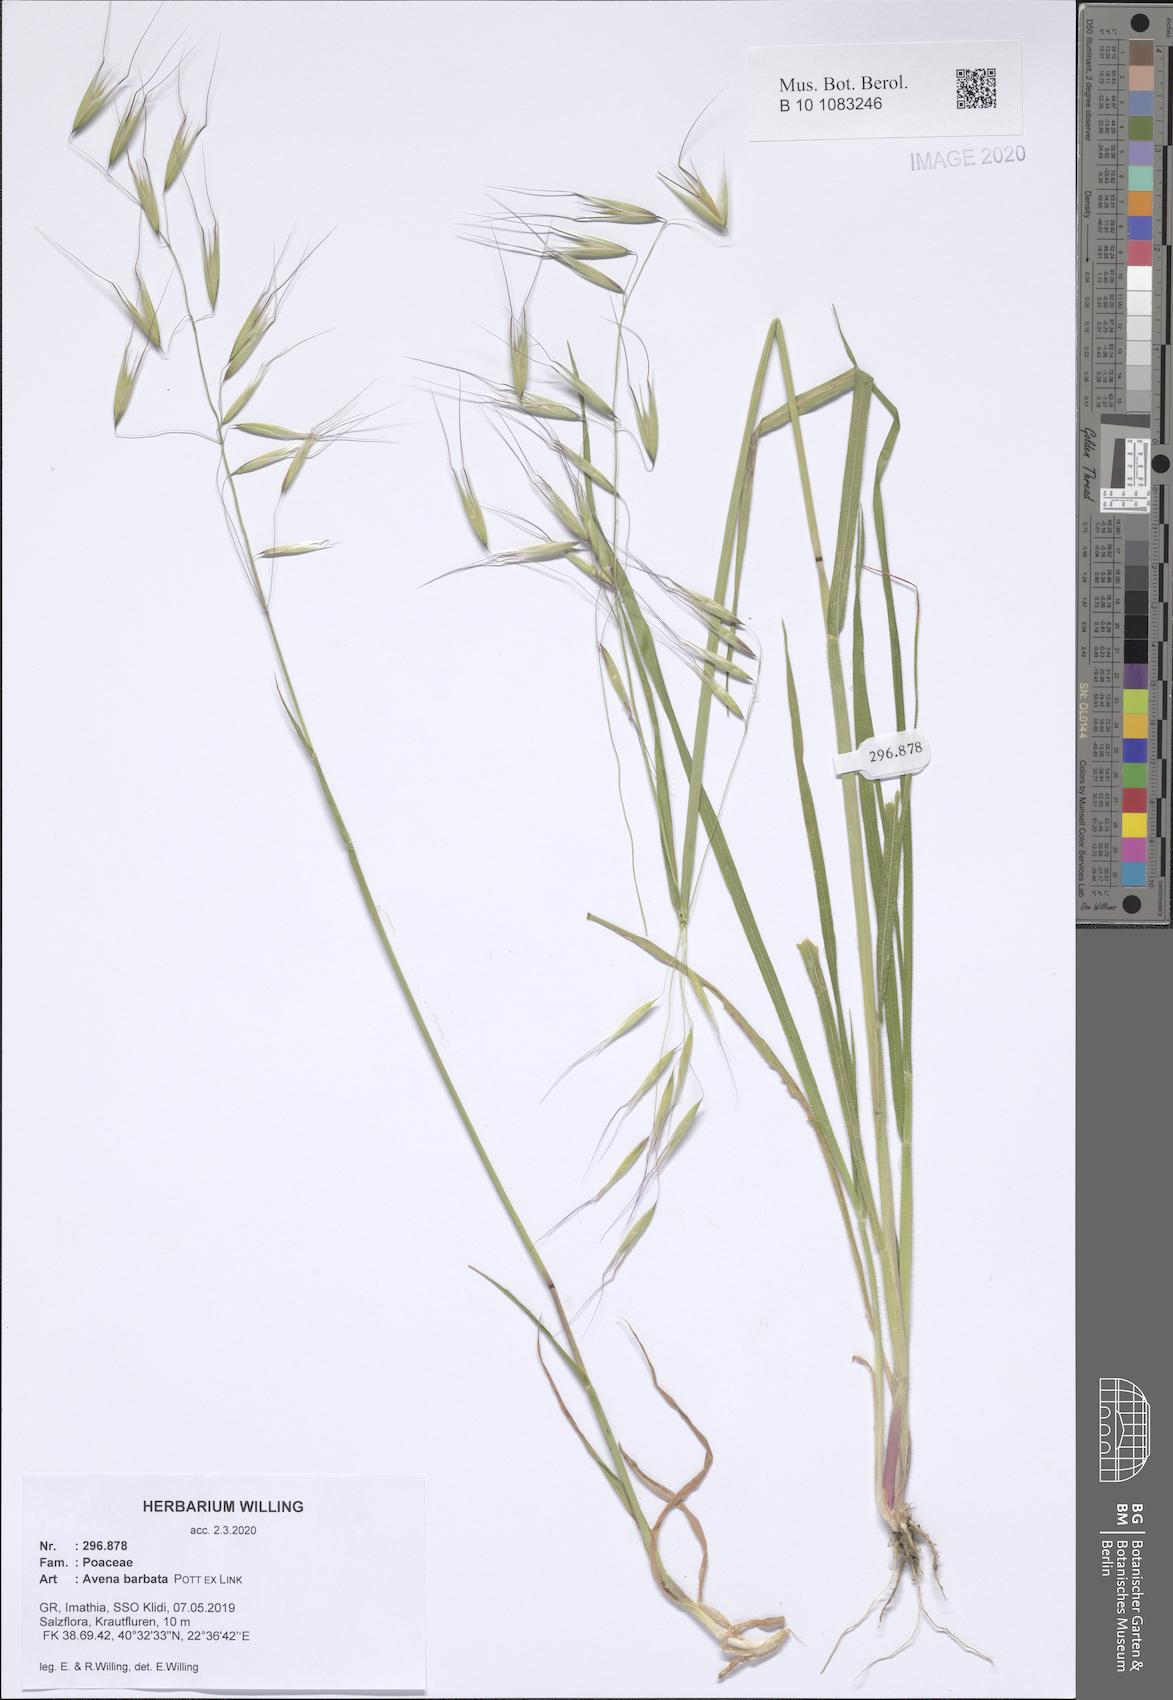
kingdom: Plantae
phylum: Tracheophyta
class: Liliopsida
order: Poales
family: Poaceae
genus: Avena
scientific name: Avena barbata
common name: Slender oat
